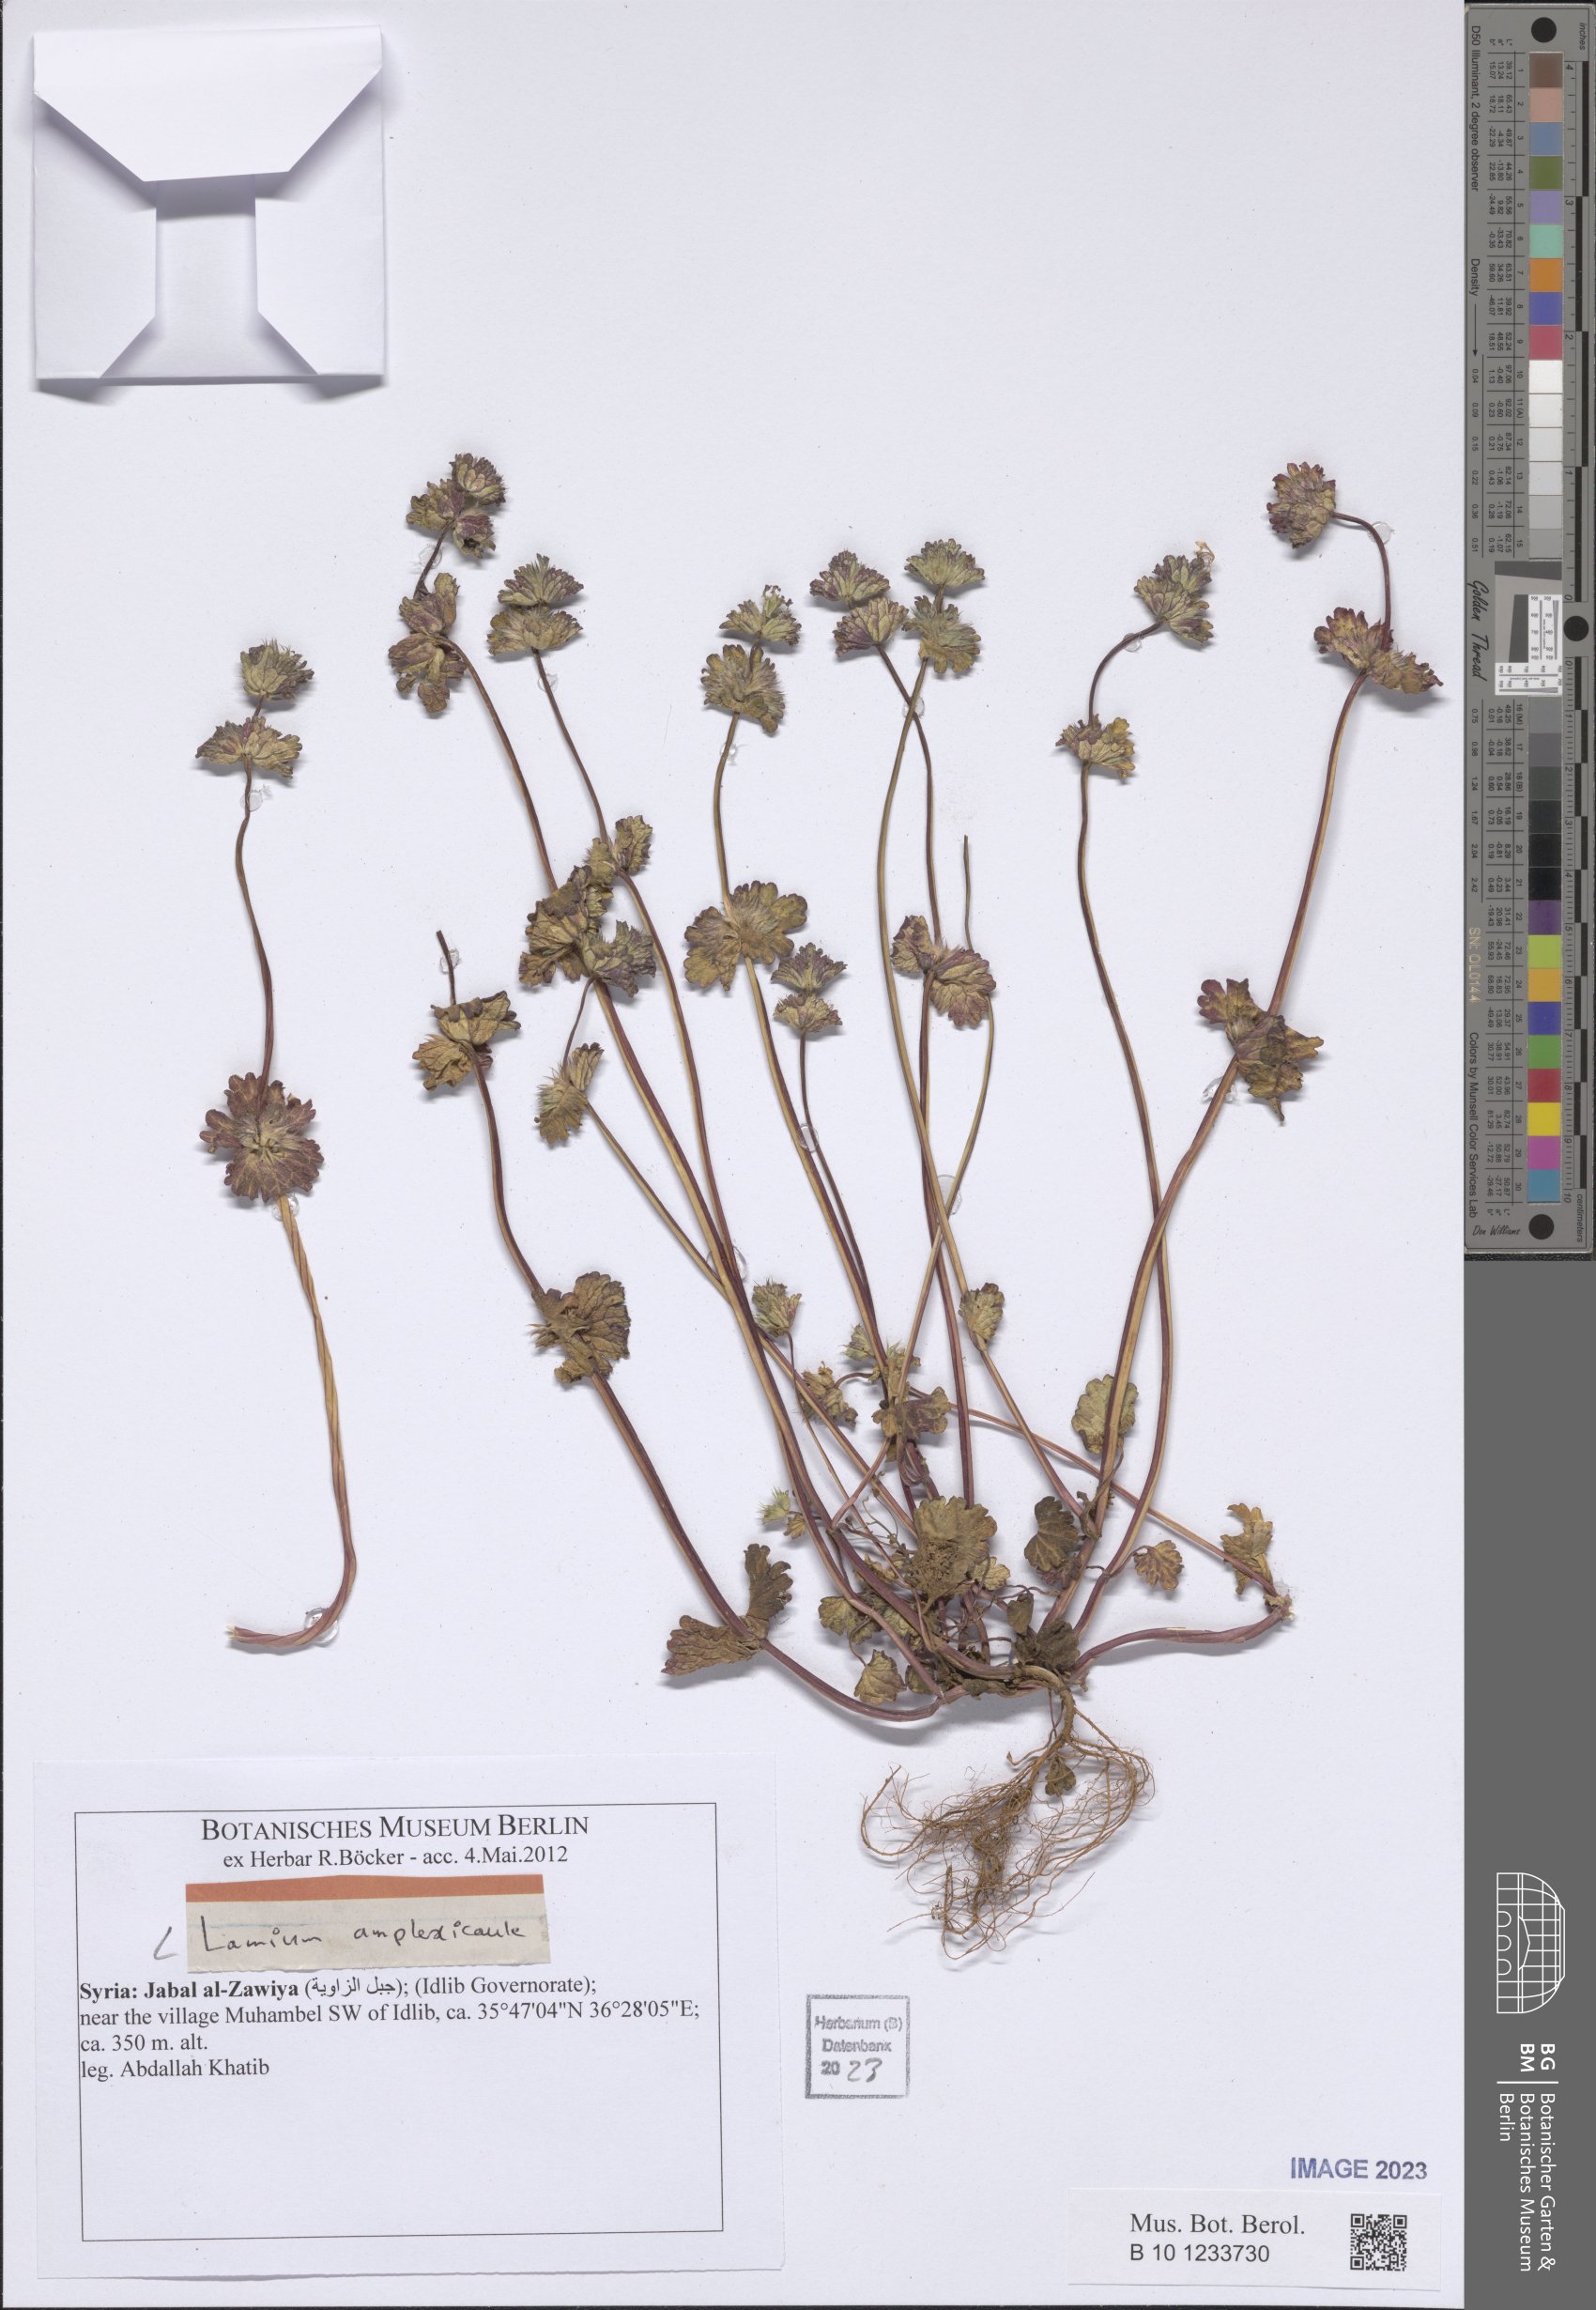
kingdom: Plantae
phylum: Tracheophyta
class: Magnoliopsida
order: Lamiales
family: Lamiaceae
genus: Lamium
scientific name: Lamium amplexicaule
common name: Henbit dead-nettle
